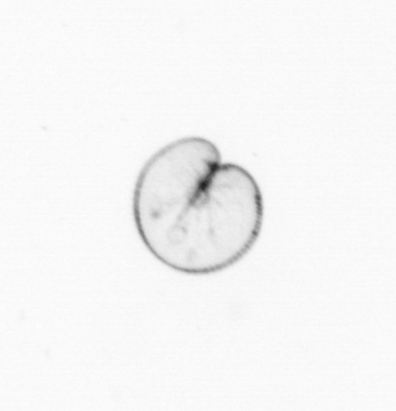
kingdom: Chromista
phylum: Myzozoa
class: Dinophyceae
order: Noctilucales
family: Noctilucaceae
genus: Noctiluca
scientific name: Noctiluca scintillans
